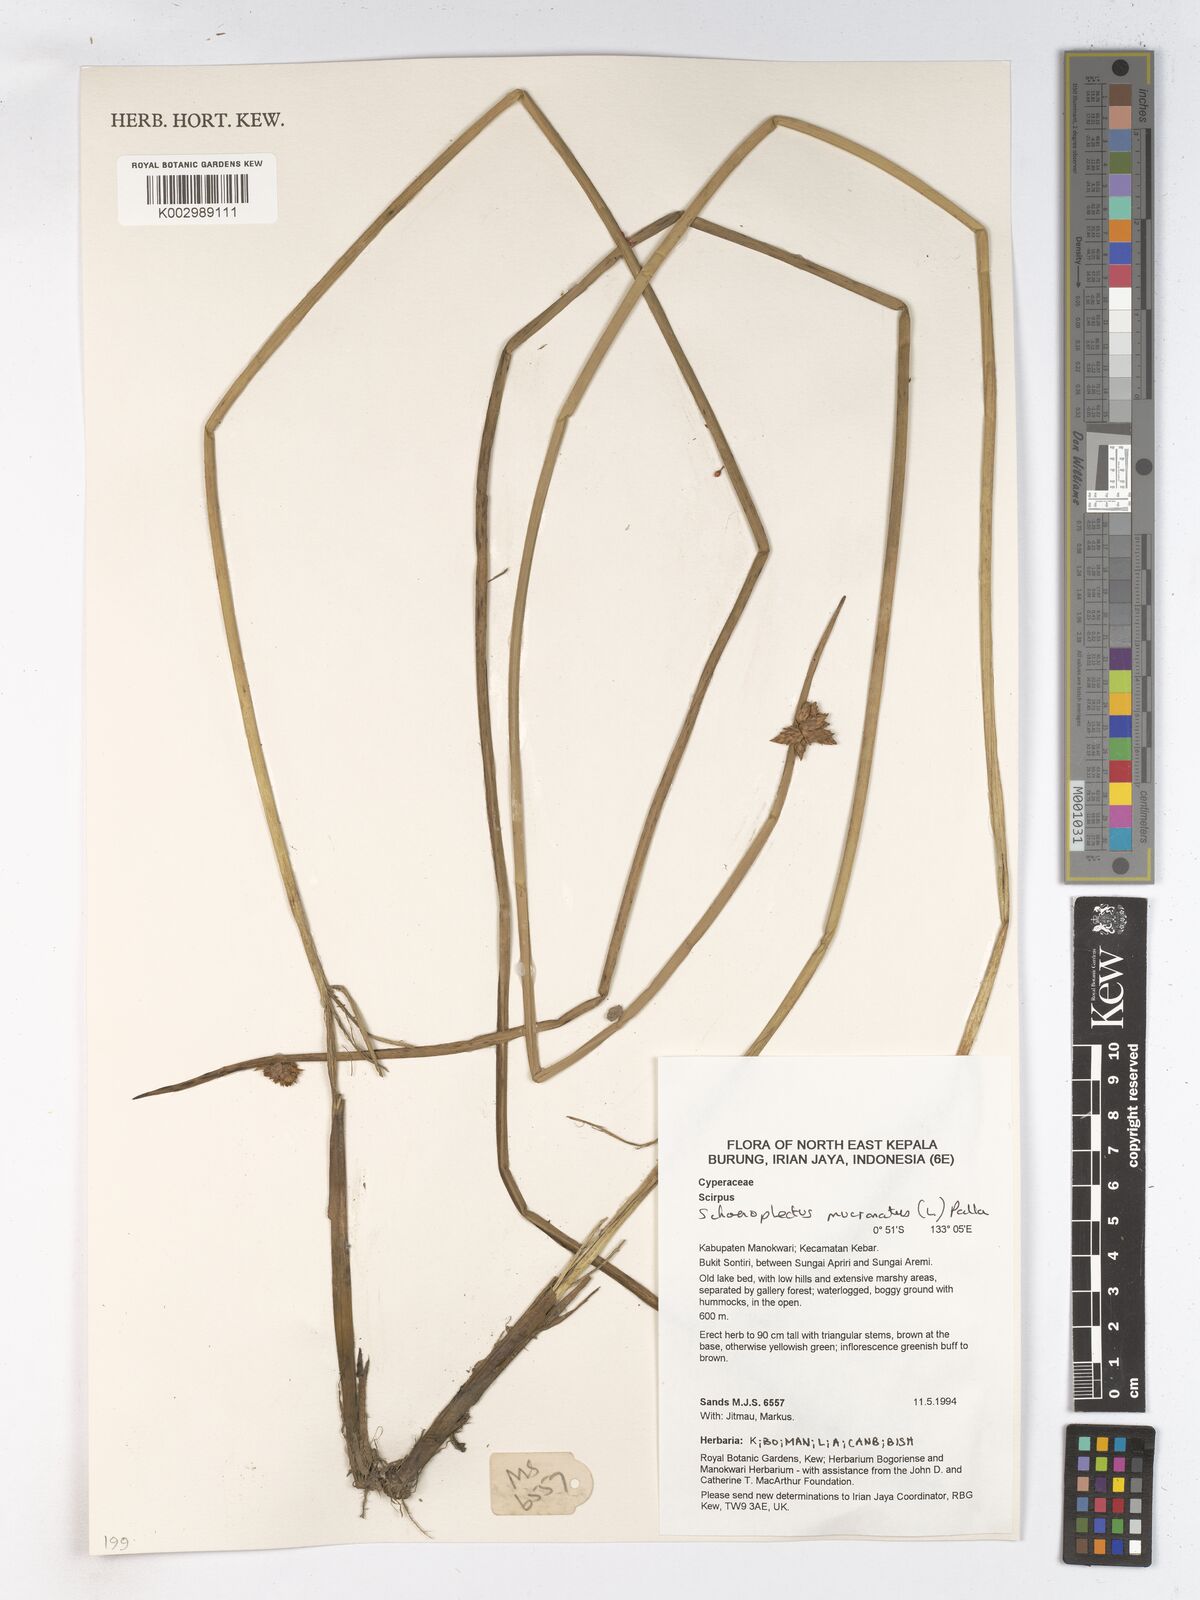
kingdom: Plantae
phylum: Tracheophyta
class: Liliopsida
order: Poales
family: Cyperaceae
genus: Schoenoplectiella
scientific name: Schoenoplectiella mucronata
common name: Bog bulrush
